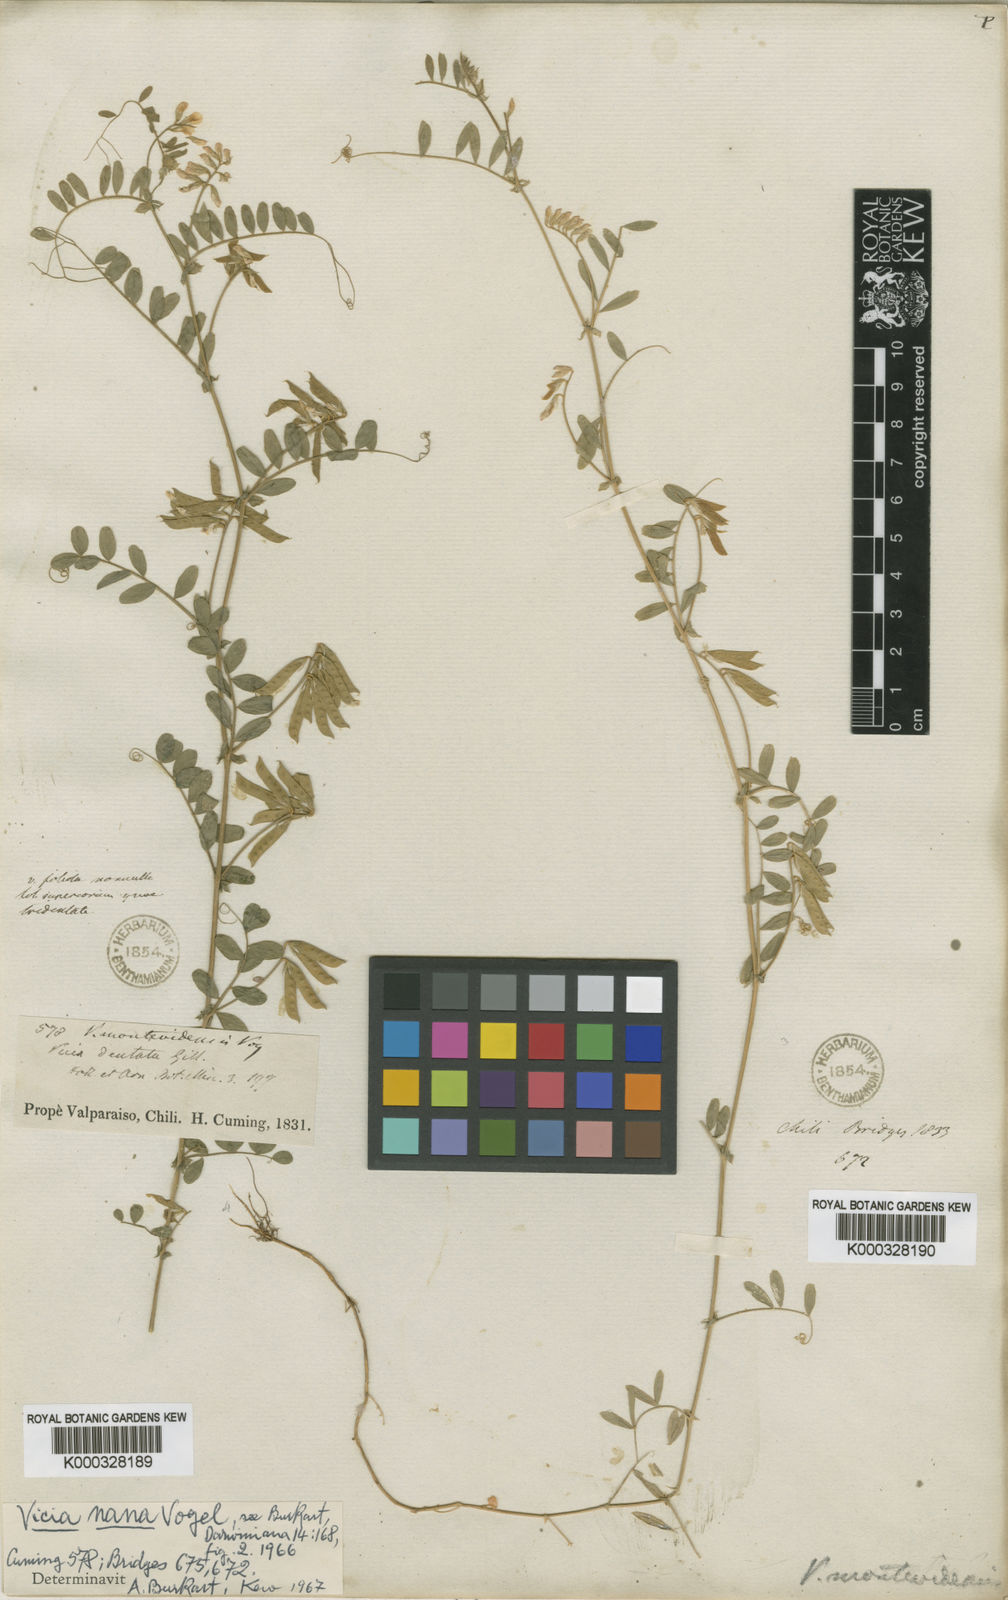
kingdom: Plantae
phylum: Tracheophyta
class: Magnoliopsida
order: Fabales
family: Fabaceae
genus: Vicia
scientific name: Vicia nana
